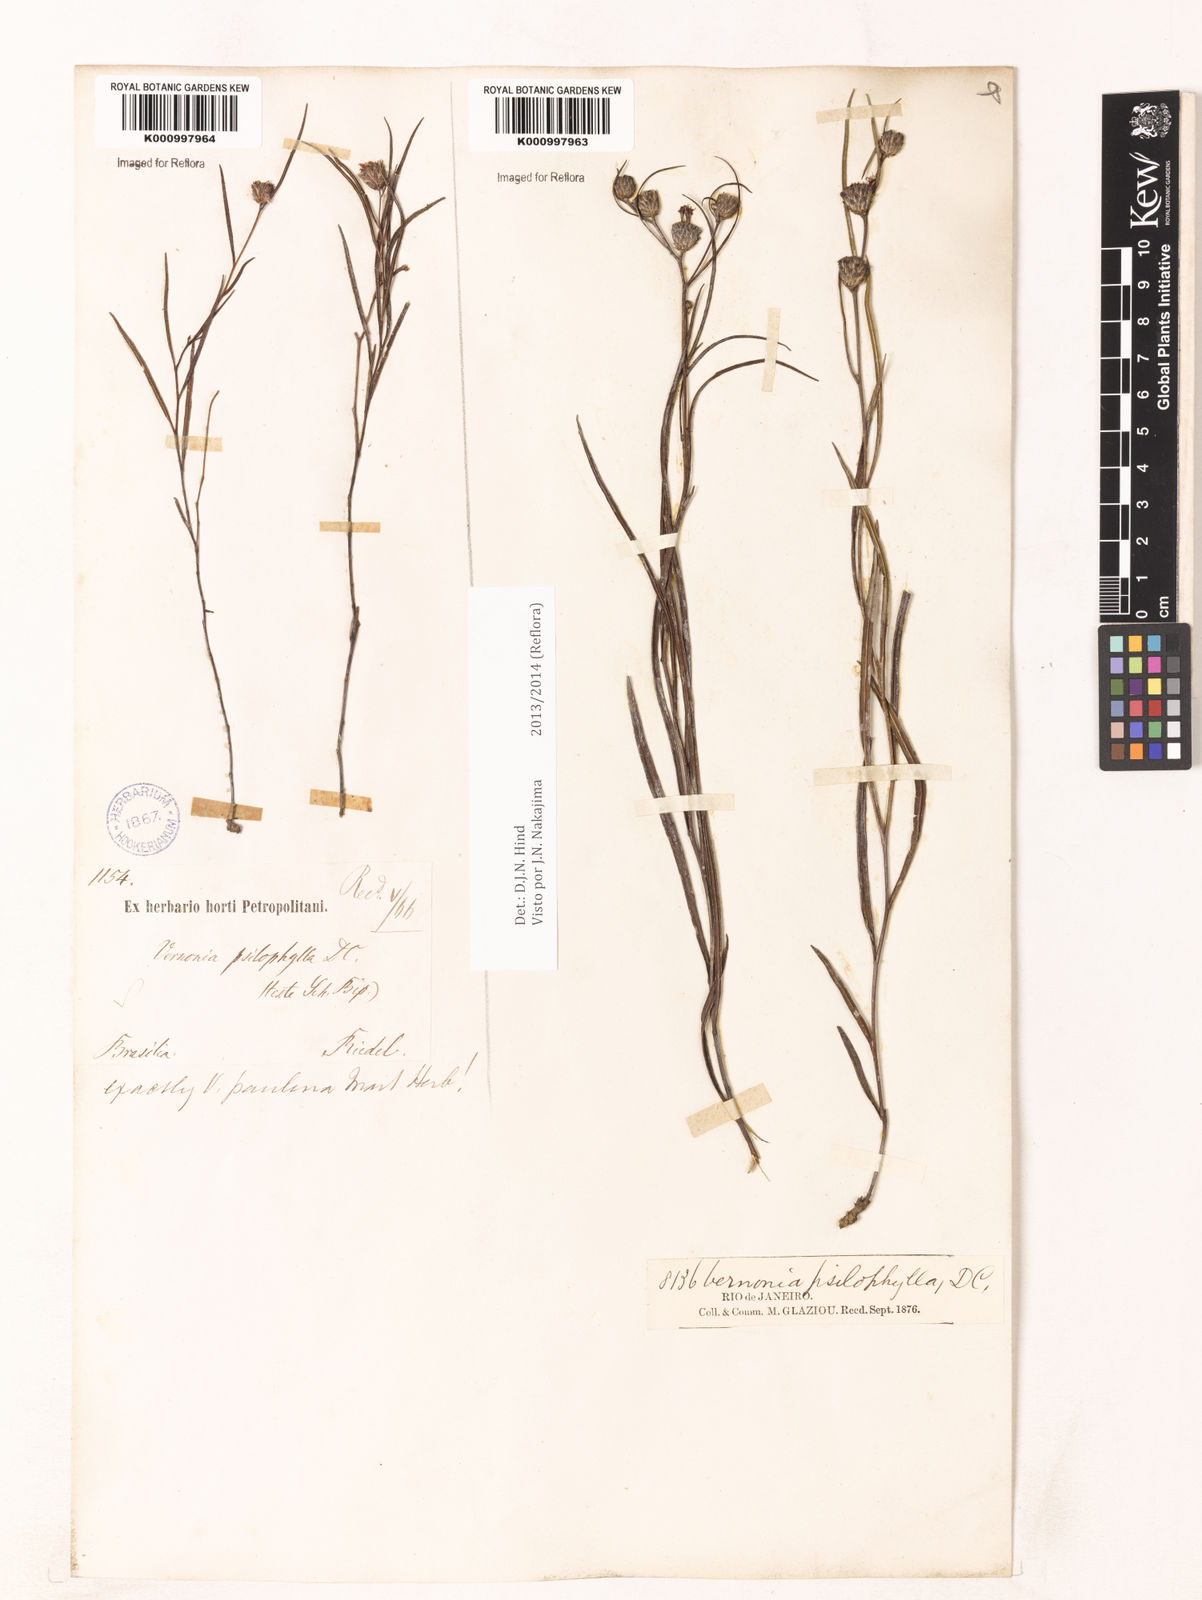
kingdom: Plantae
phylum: Tracheophyta
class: Magnoliopsida
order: Asterales
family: Asteraceae
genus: Lessingianthus
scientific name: Lessingianthus psilophyllus
